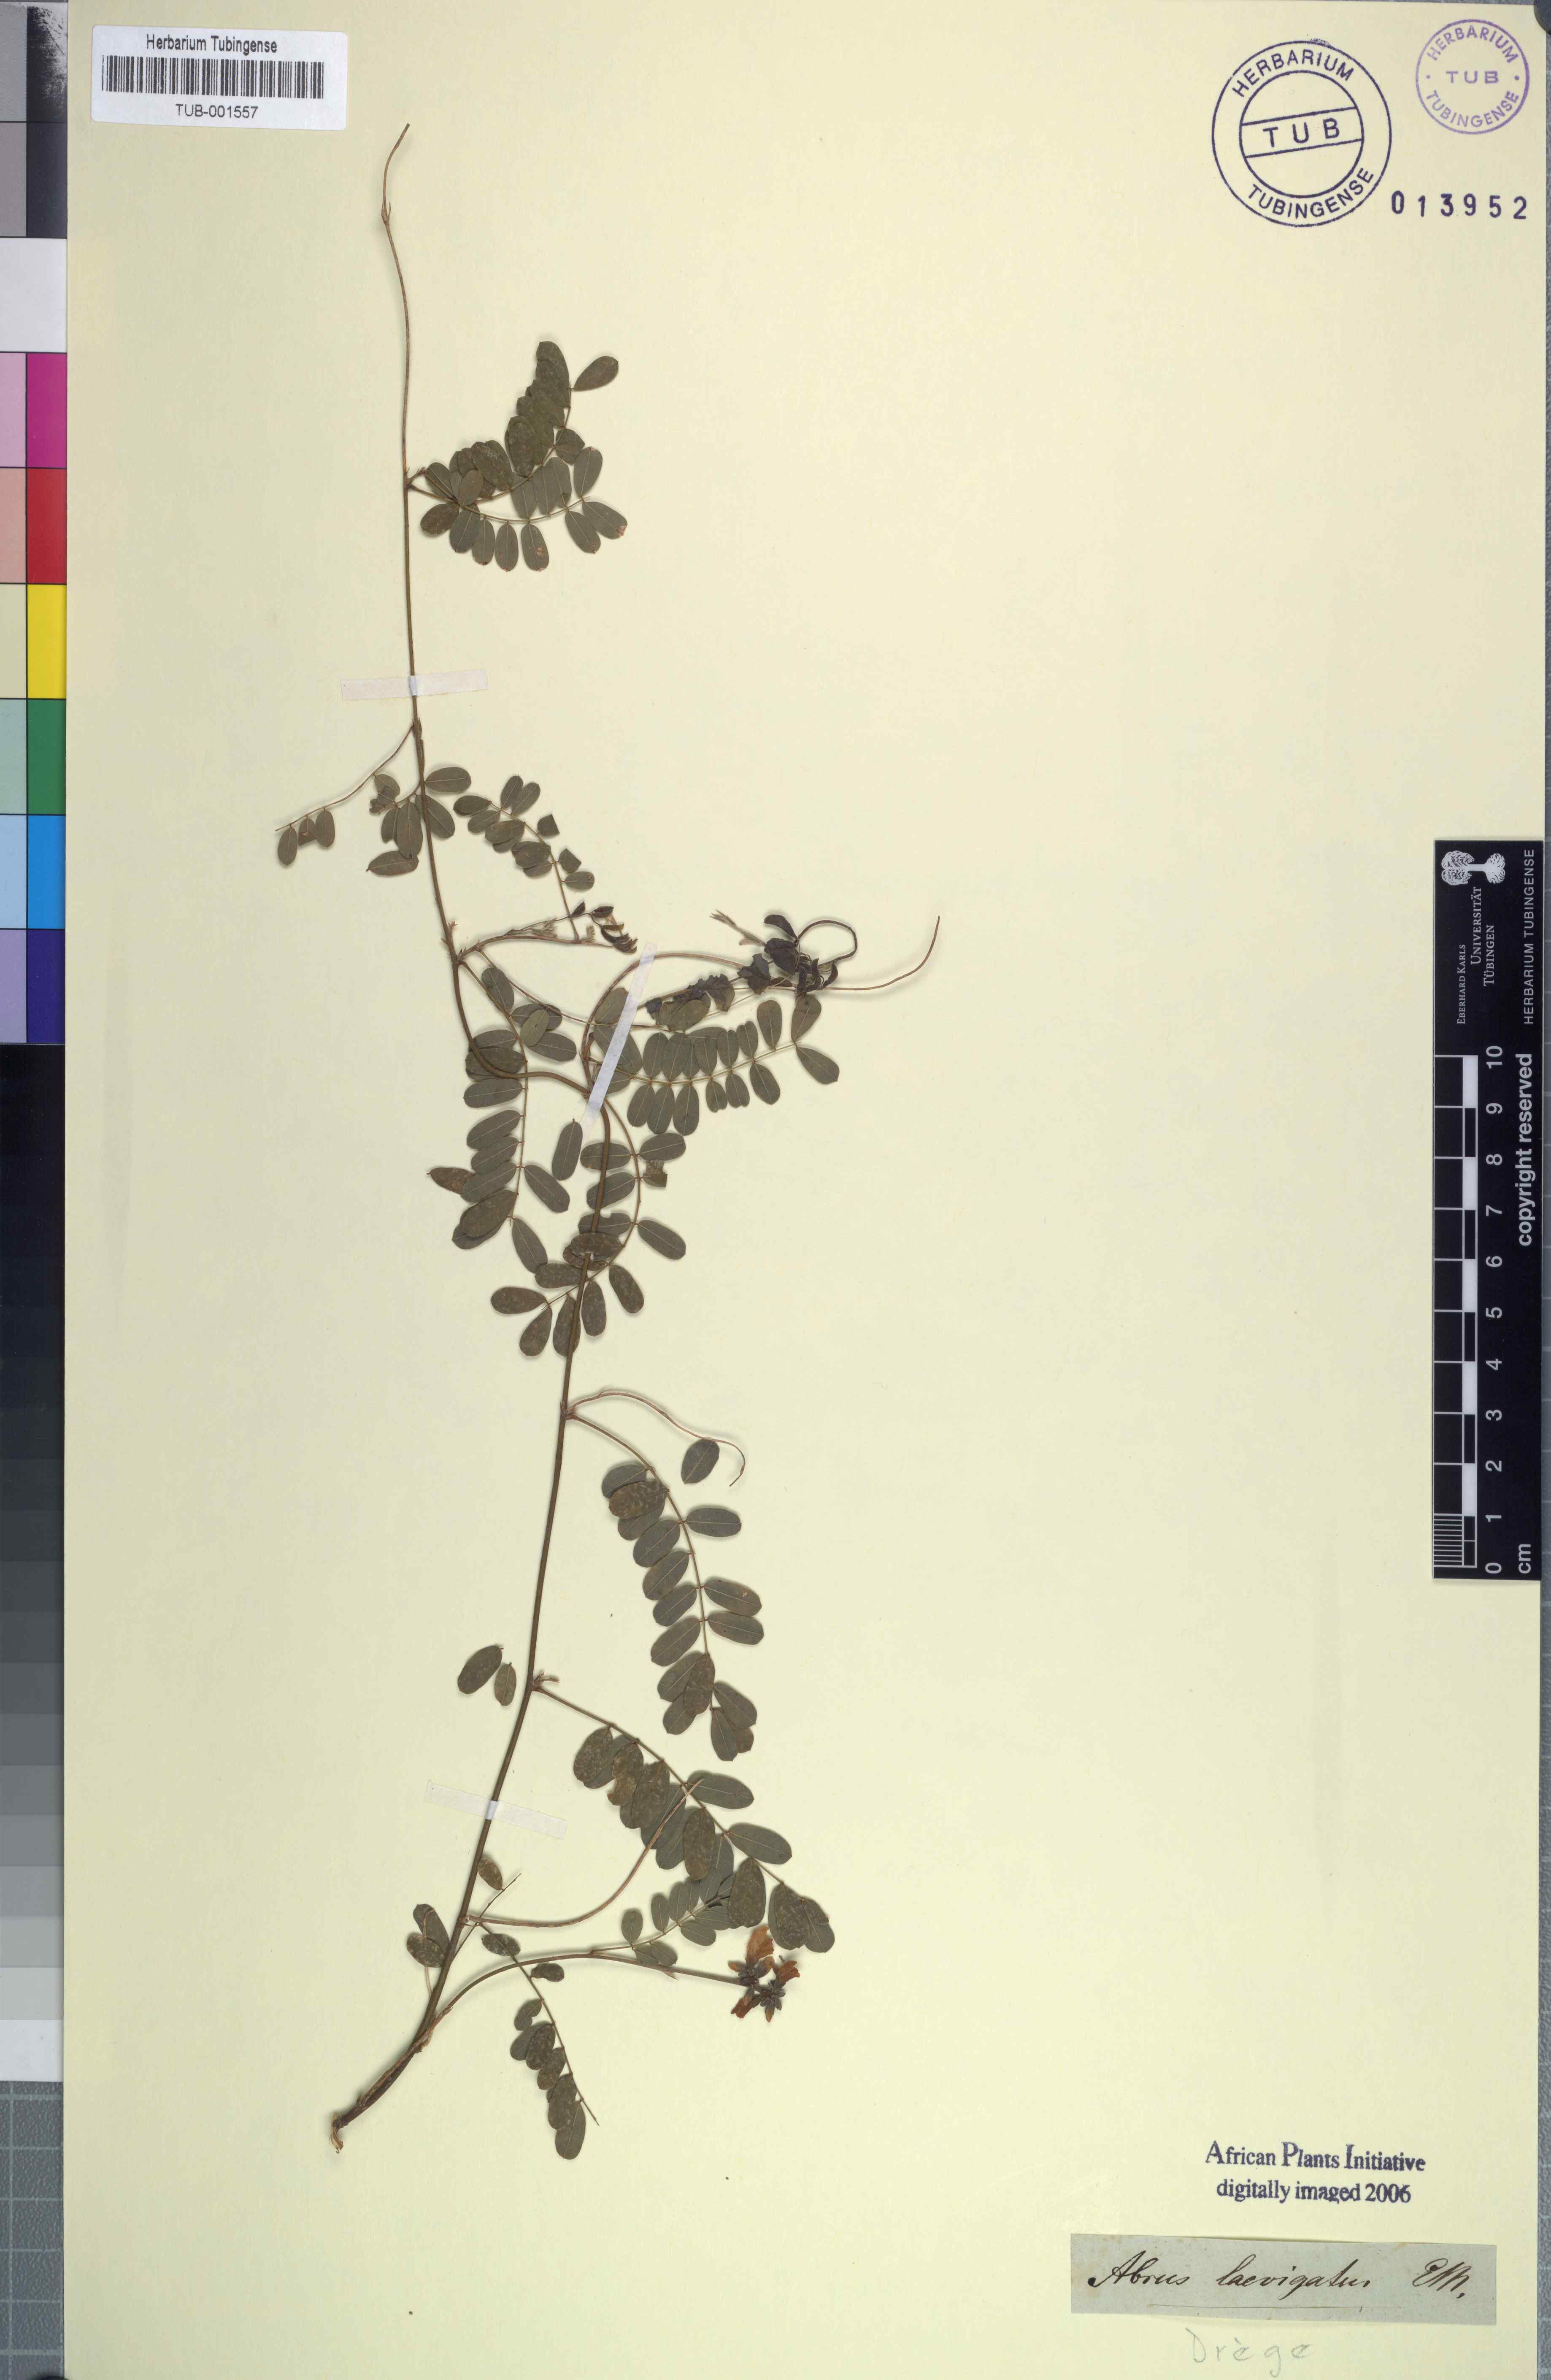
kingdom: Plantae
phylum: Tracheophyta
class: Magnoliopsida
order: Fabales
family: Fabaceae
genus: Abrus
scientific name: Abrus fruticulosus
